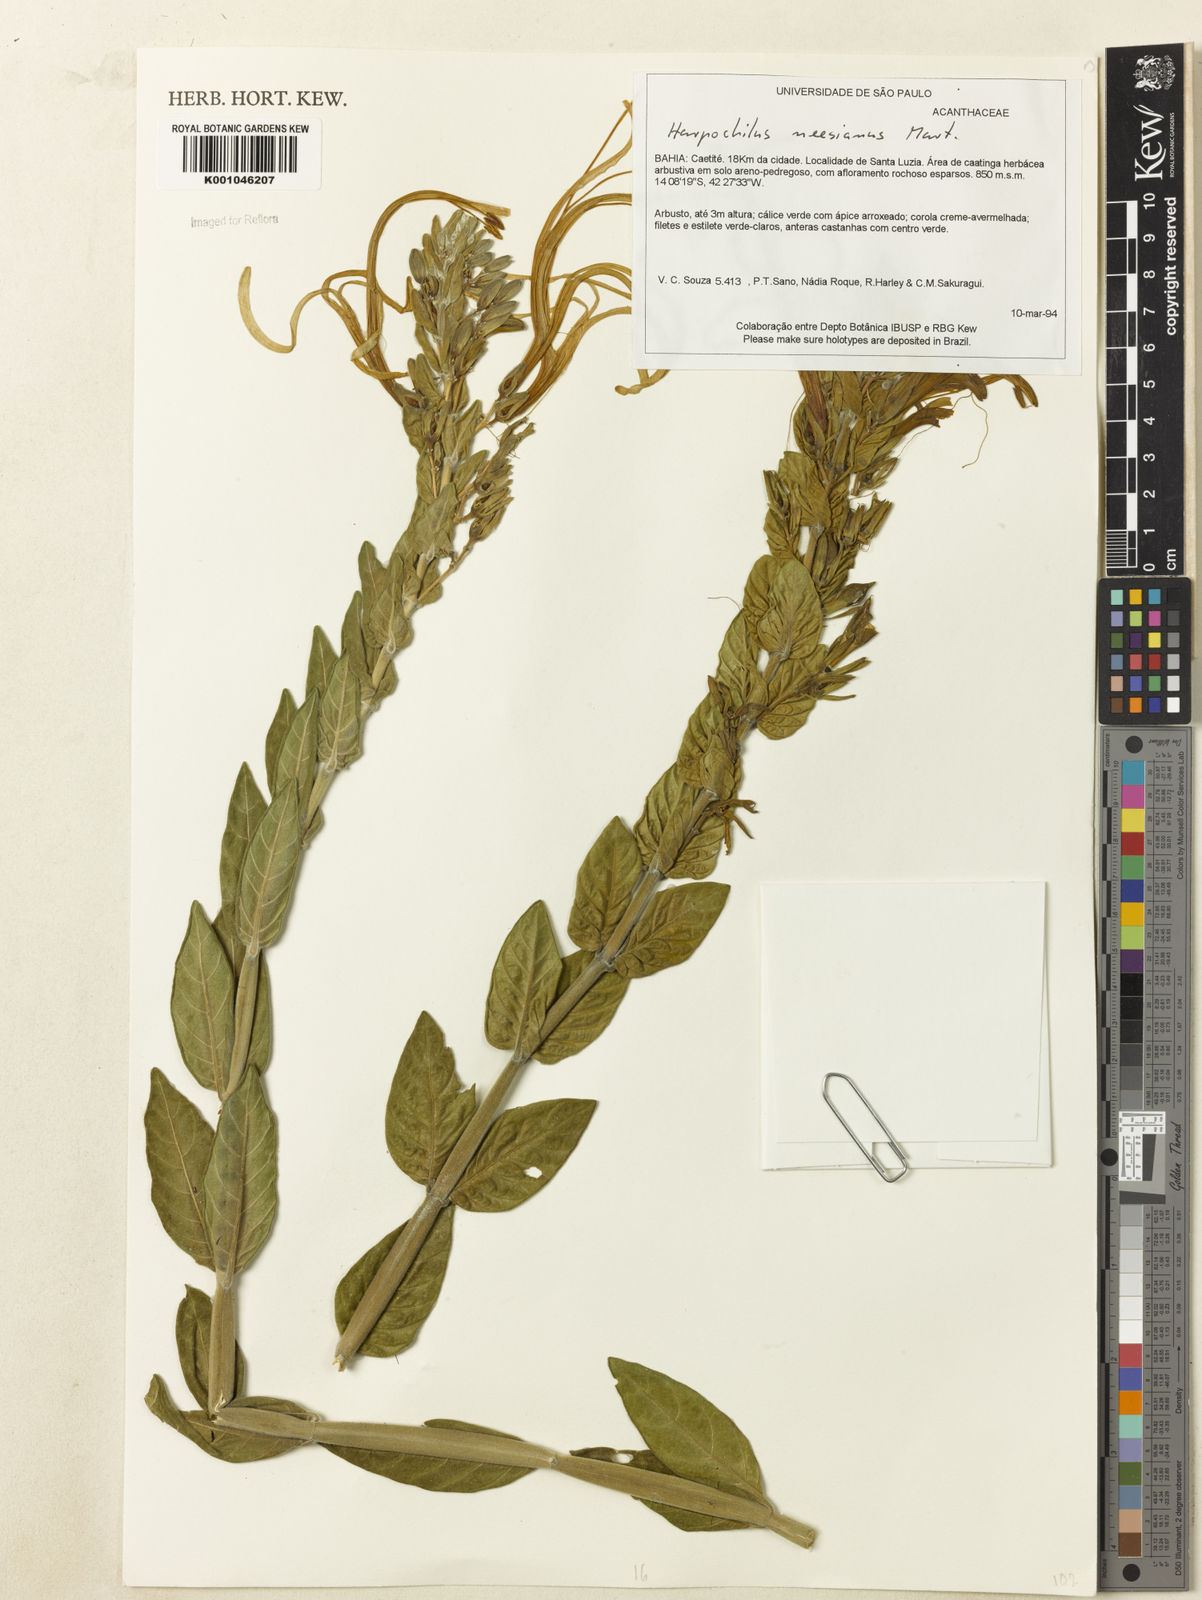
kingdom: Plantae
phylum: Tracheophyta
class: Magnoliopsida
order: Lamiales
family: Acanthaceae
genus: Harpochilus
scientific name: Harpochilus neesianus
